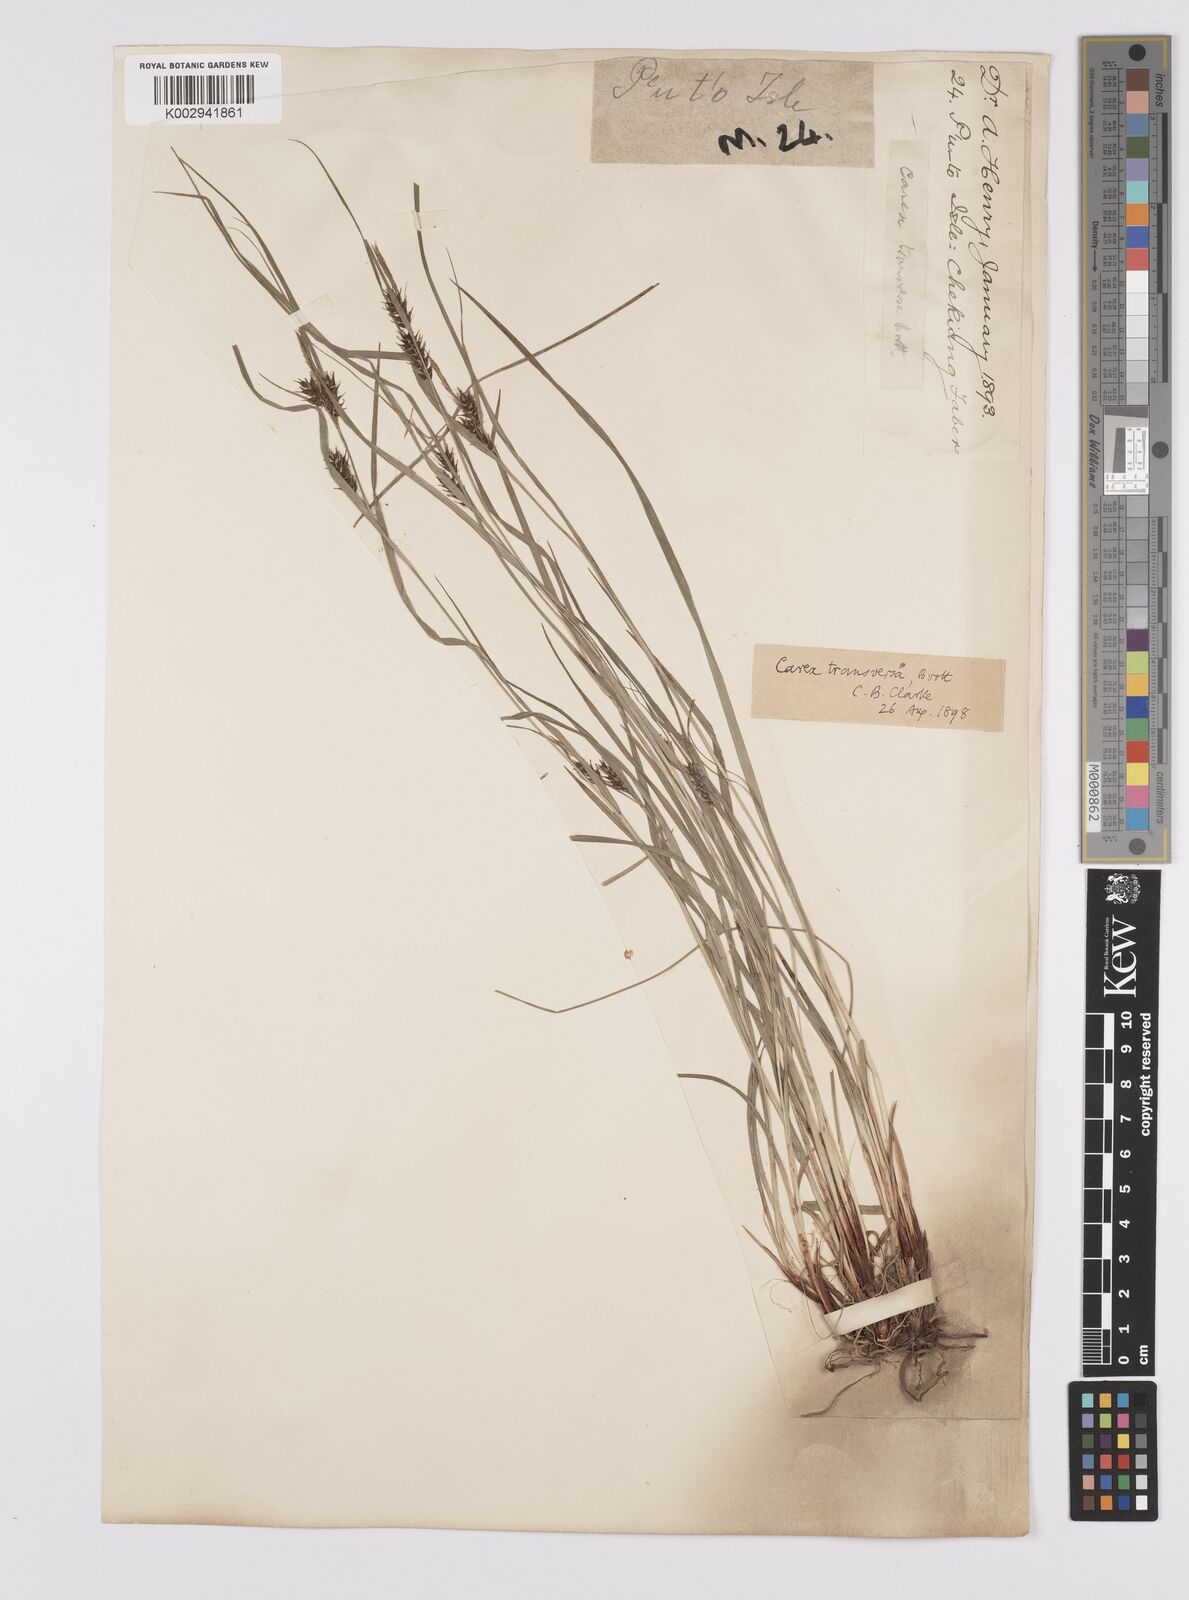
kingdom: Plantae
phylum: Tracheophyta
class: Liliopsida
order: Poales
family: Cyperaceae
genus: Carex
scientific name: Carex brownii
